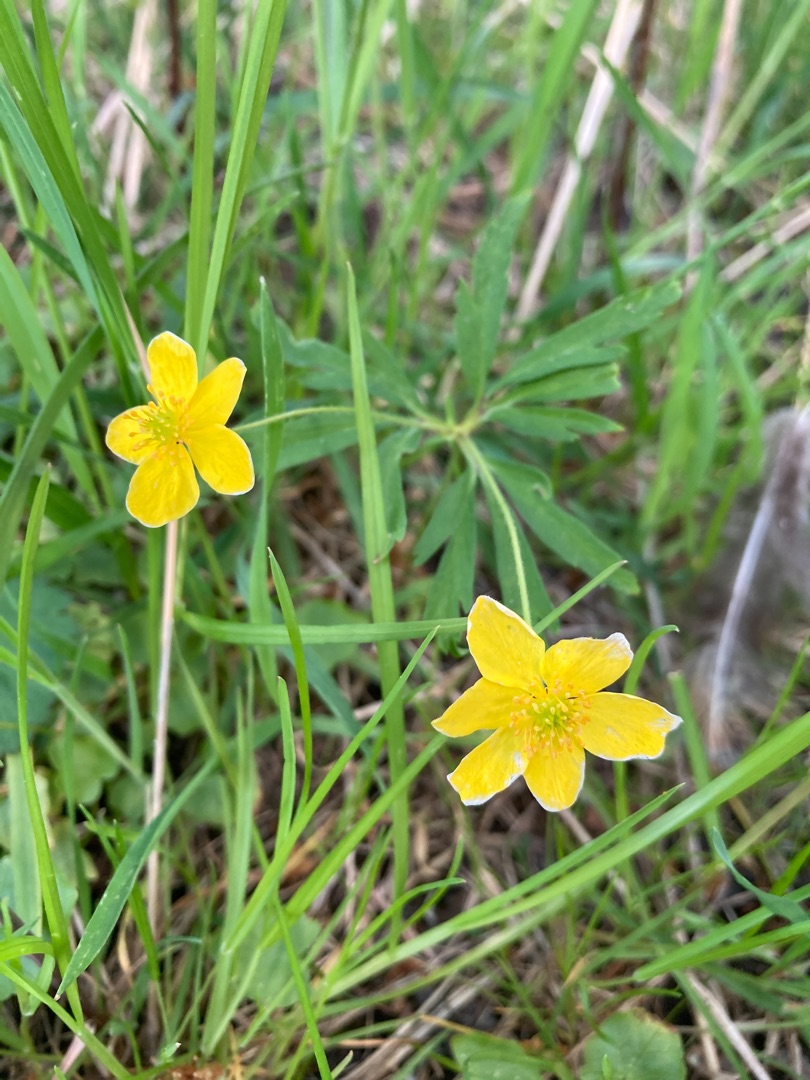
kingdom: Plantae
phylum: Tracheophyta
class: Magnoliopsida
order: Ranunculales
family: Ranunculaceae
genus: Anemone
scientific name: Anemone ranunculoides
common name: Gul anemone
